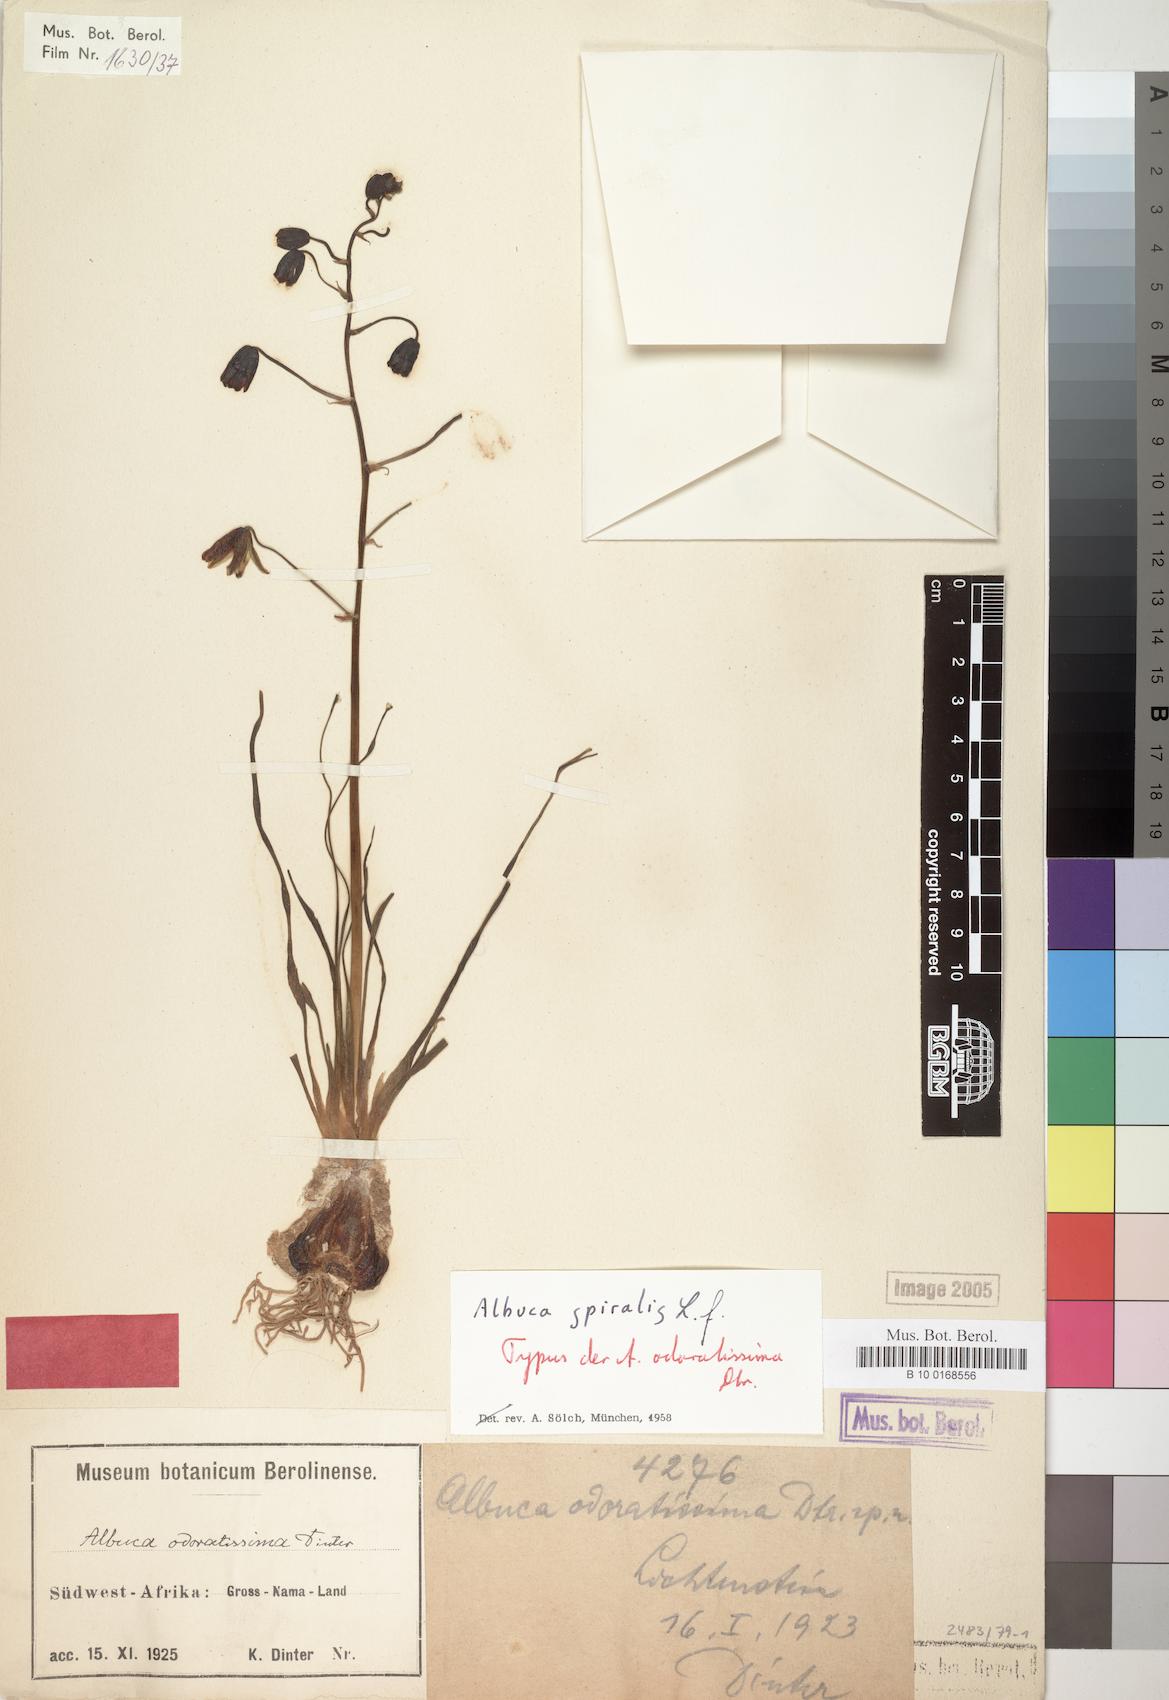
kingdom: Plantae
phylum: Tracheophyta
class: Liliopsida
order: Asparagales
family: Asparagaceae
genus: Albuca
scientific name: Albuca spiralis
